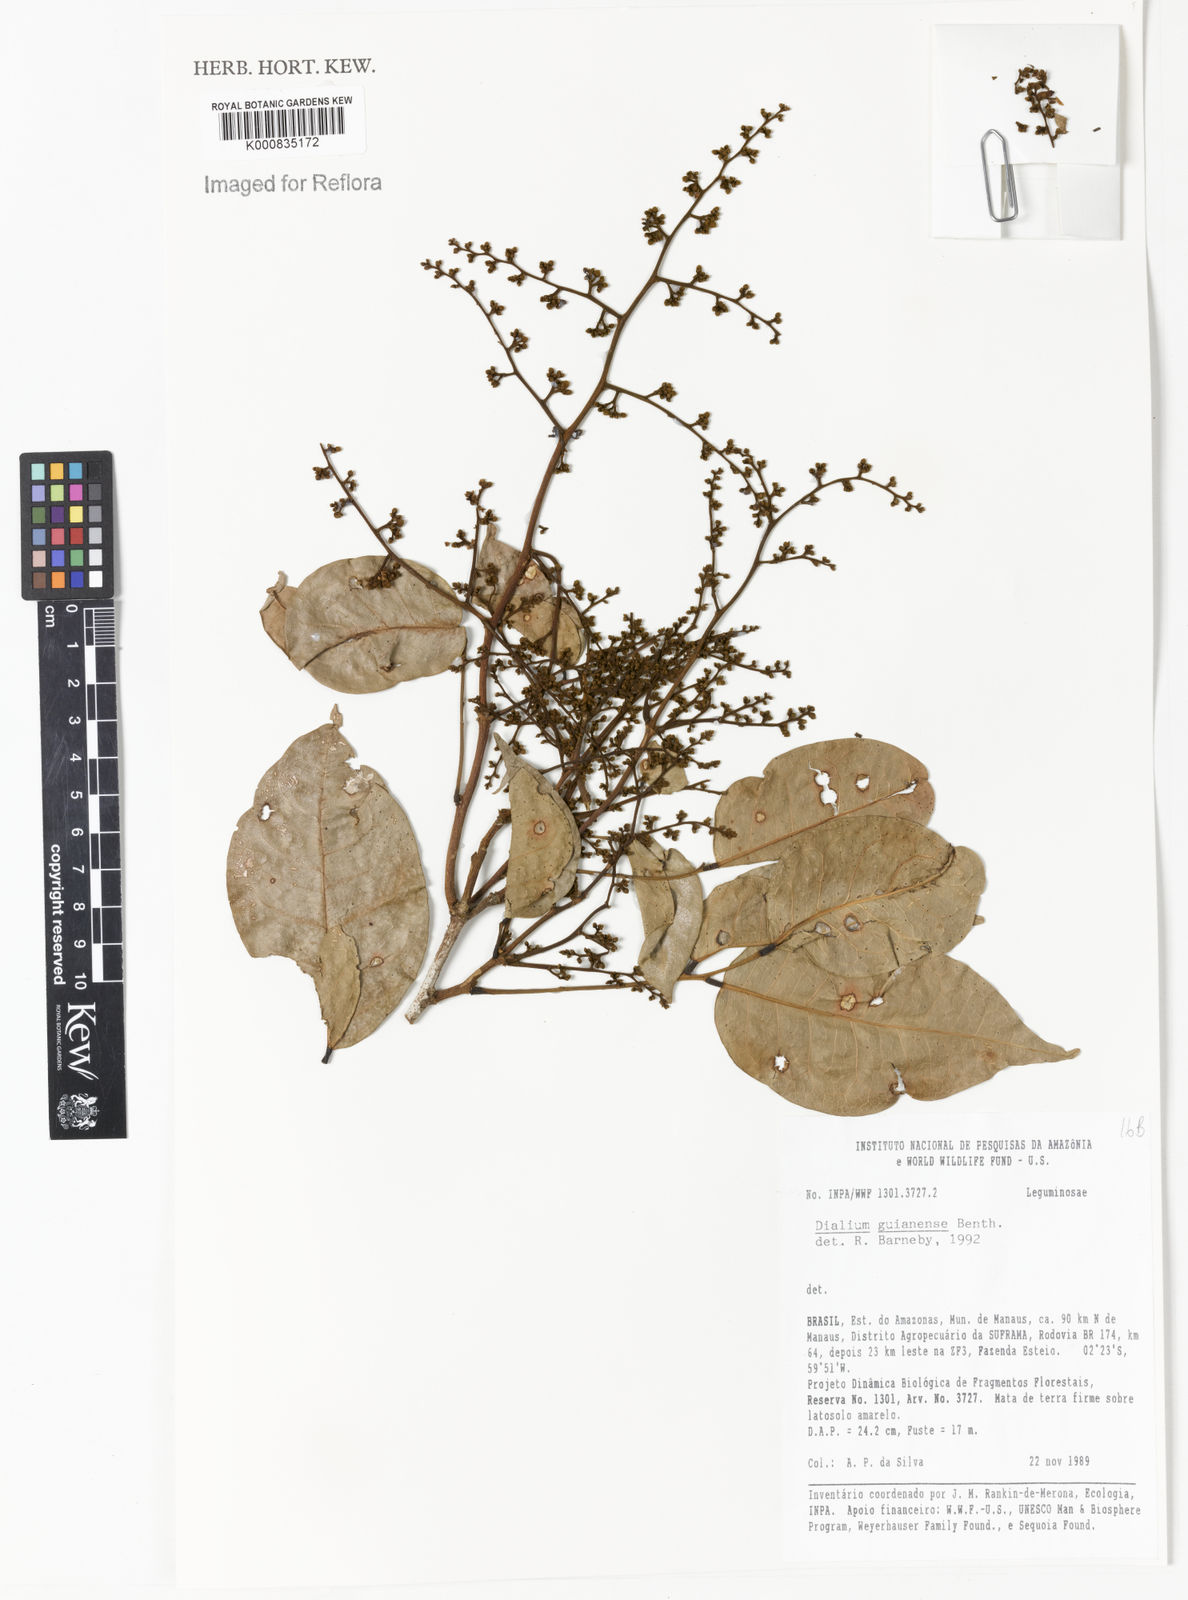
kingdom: Plantae
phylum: Tracheophyta
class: Magnoliopsida
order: Fabales
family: Fabaceae
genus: Dialium
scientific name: Dialium guianense
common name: Ironwood
